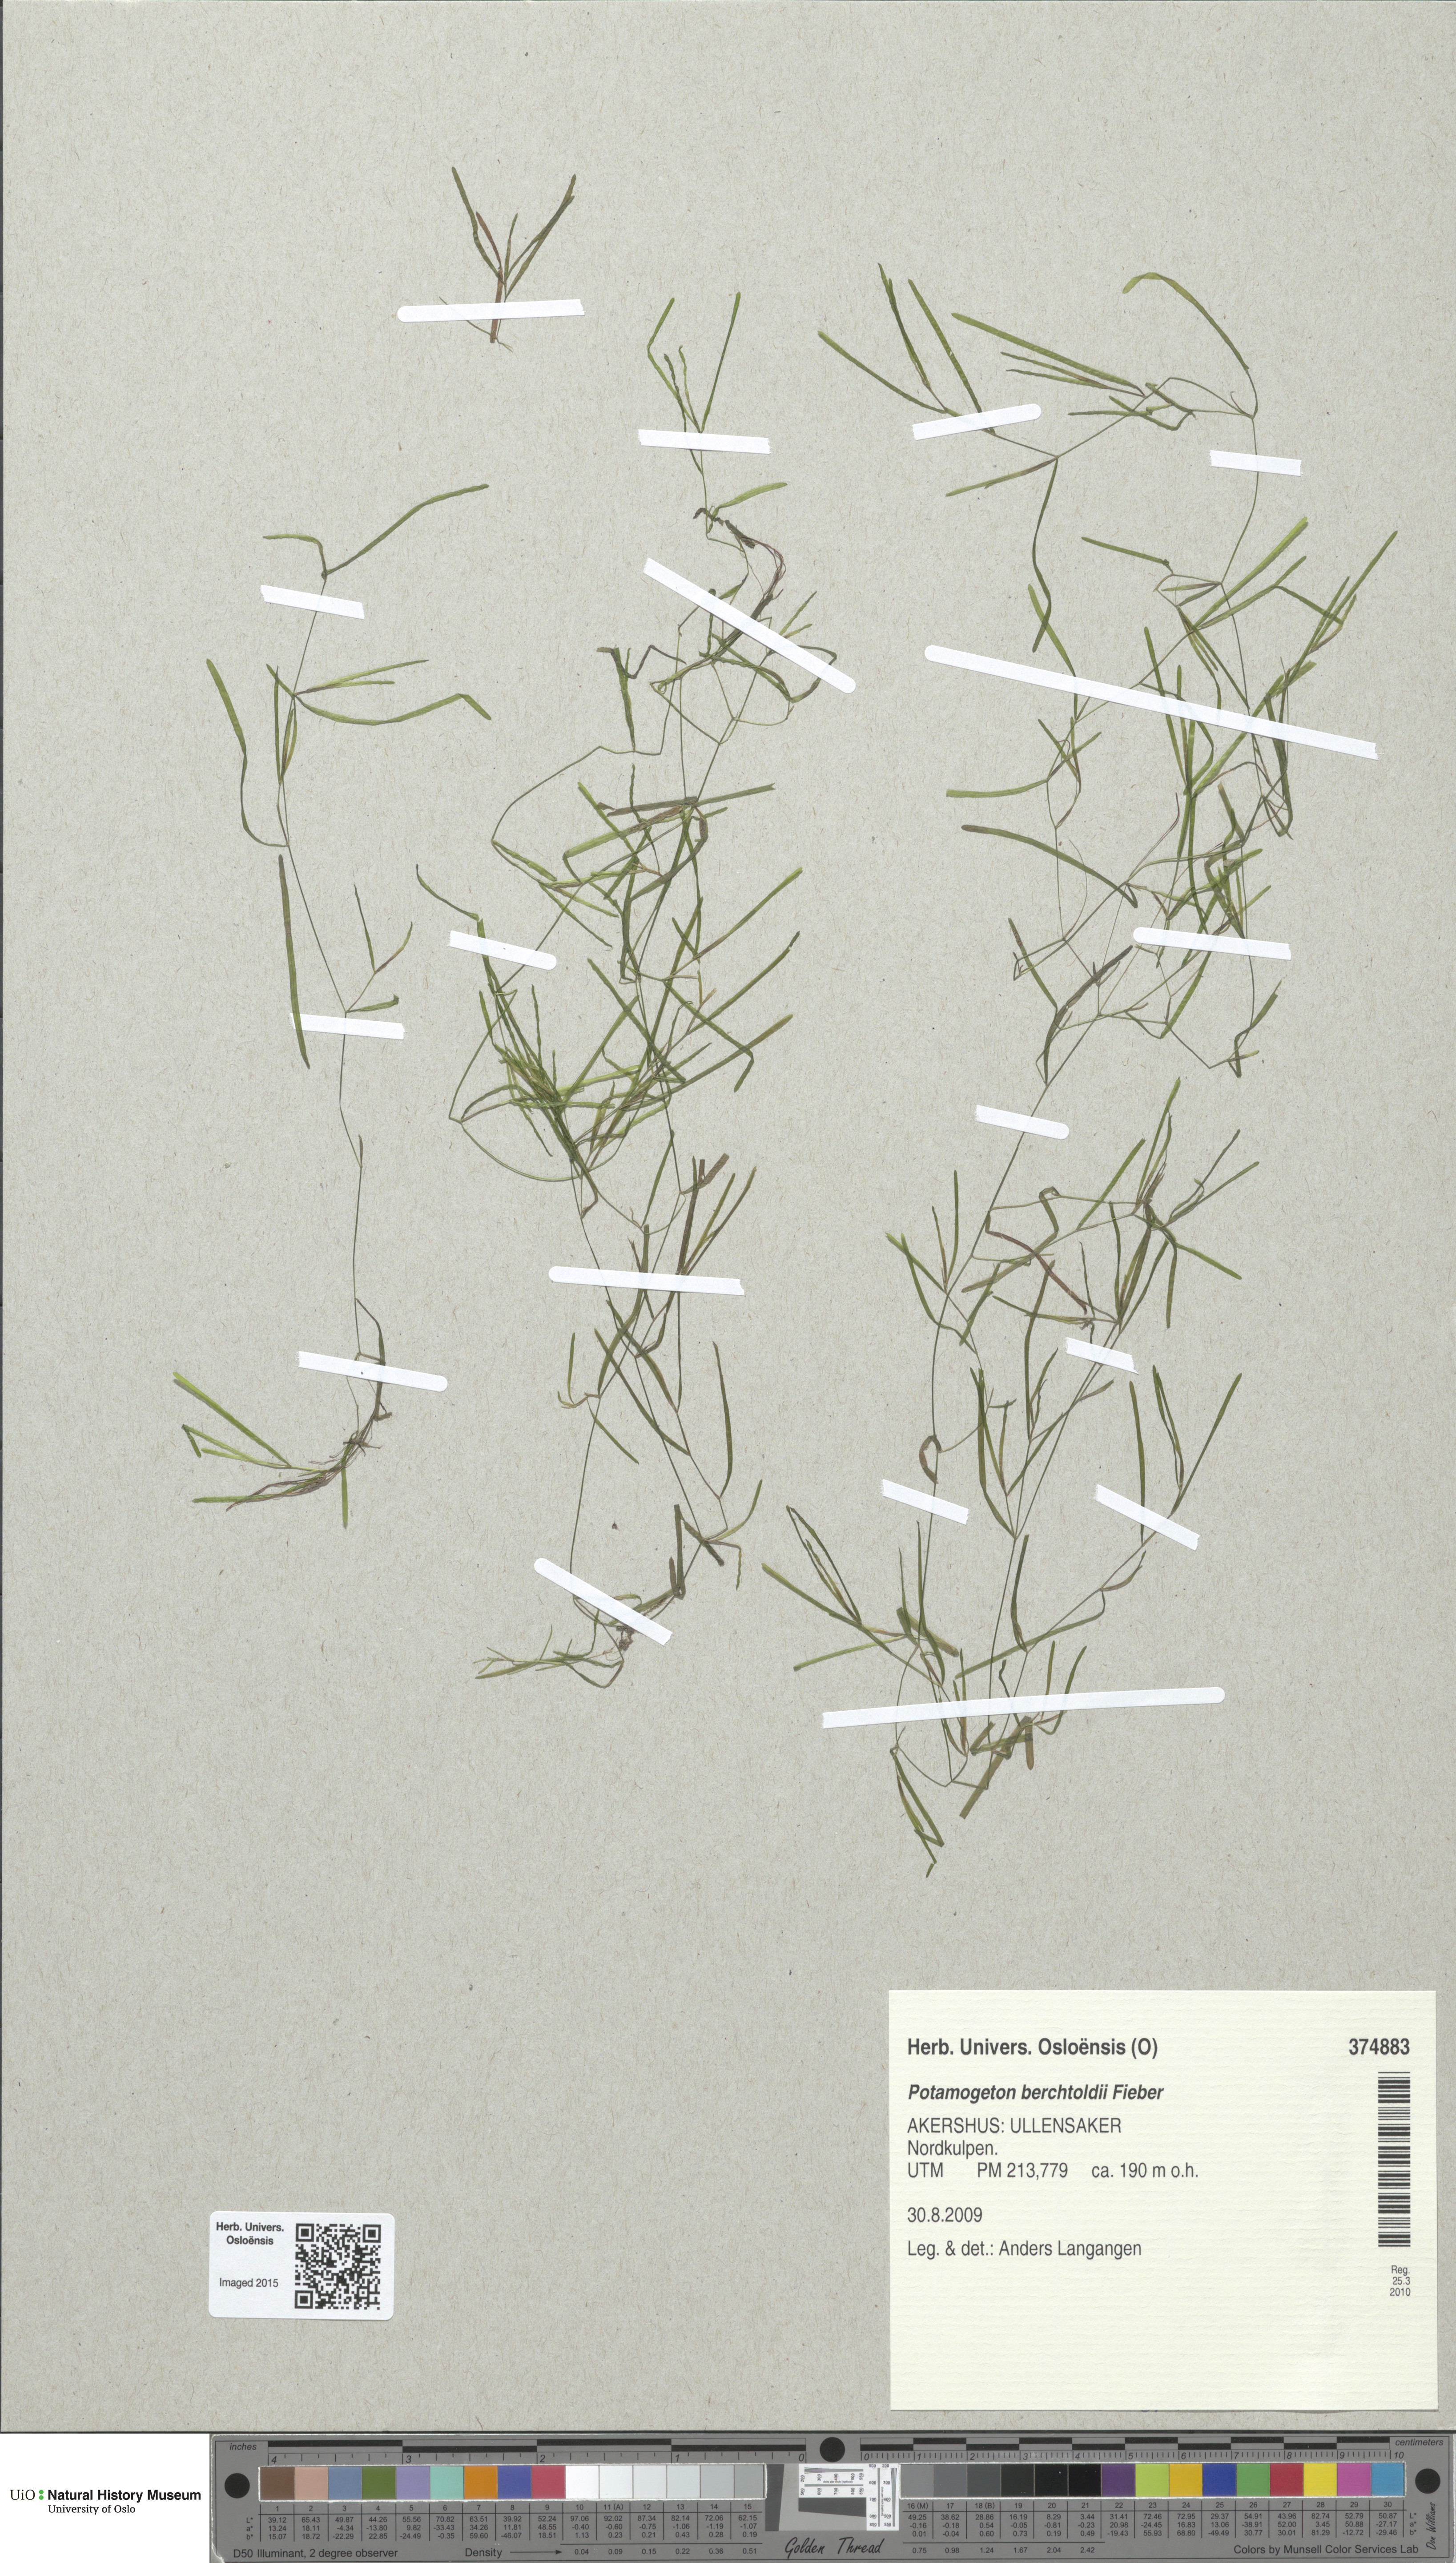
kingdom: Plantae
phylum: Tracheophyta
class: Liliopsida
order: Alismatales
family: Potamogetonaceae
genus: Potamogeton
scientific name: Potamogeton berchtoldii
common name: Small pondweed
